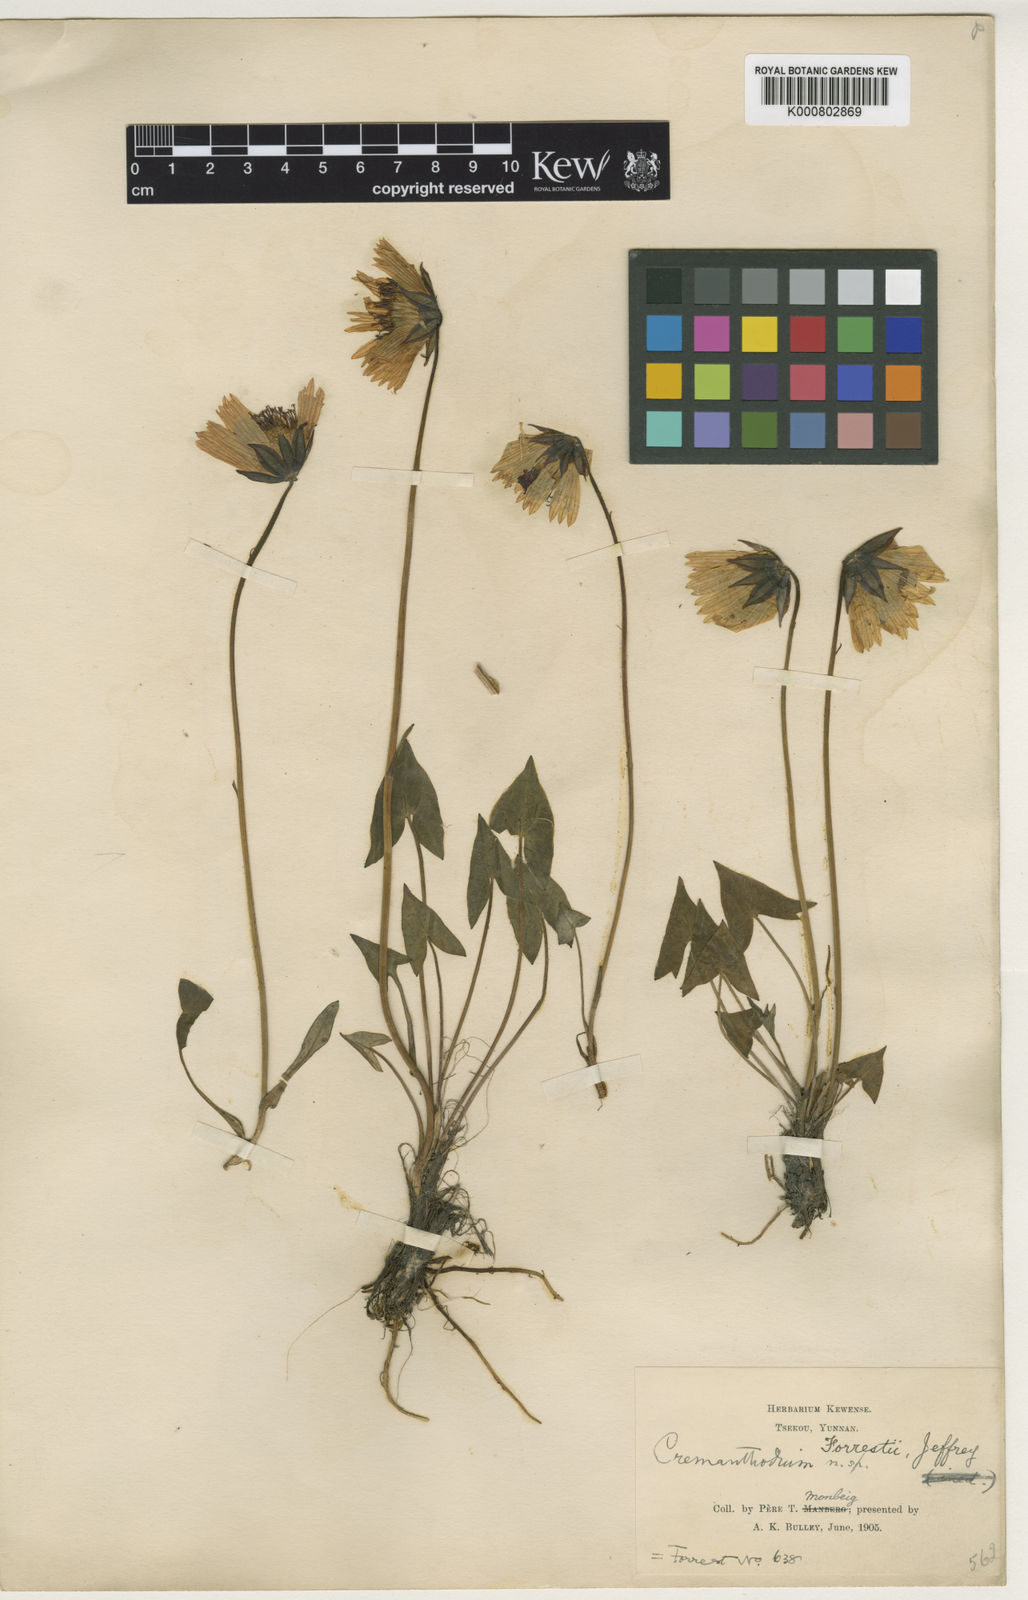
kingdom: Plantae
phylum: Tracheophyta
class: Magnoliopsida
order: Asterales
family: Asteraceae
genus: Cremanthodium
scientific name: Cremanthodium forrestii
